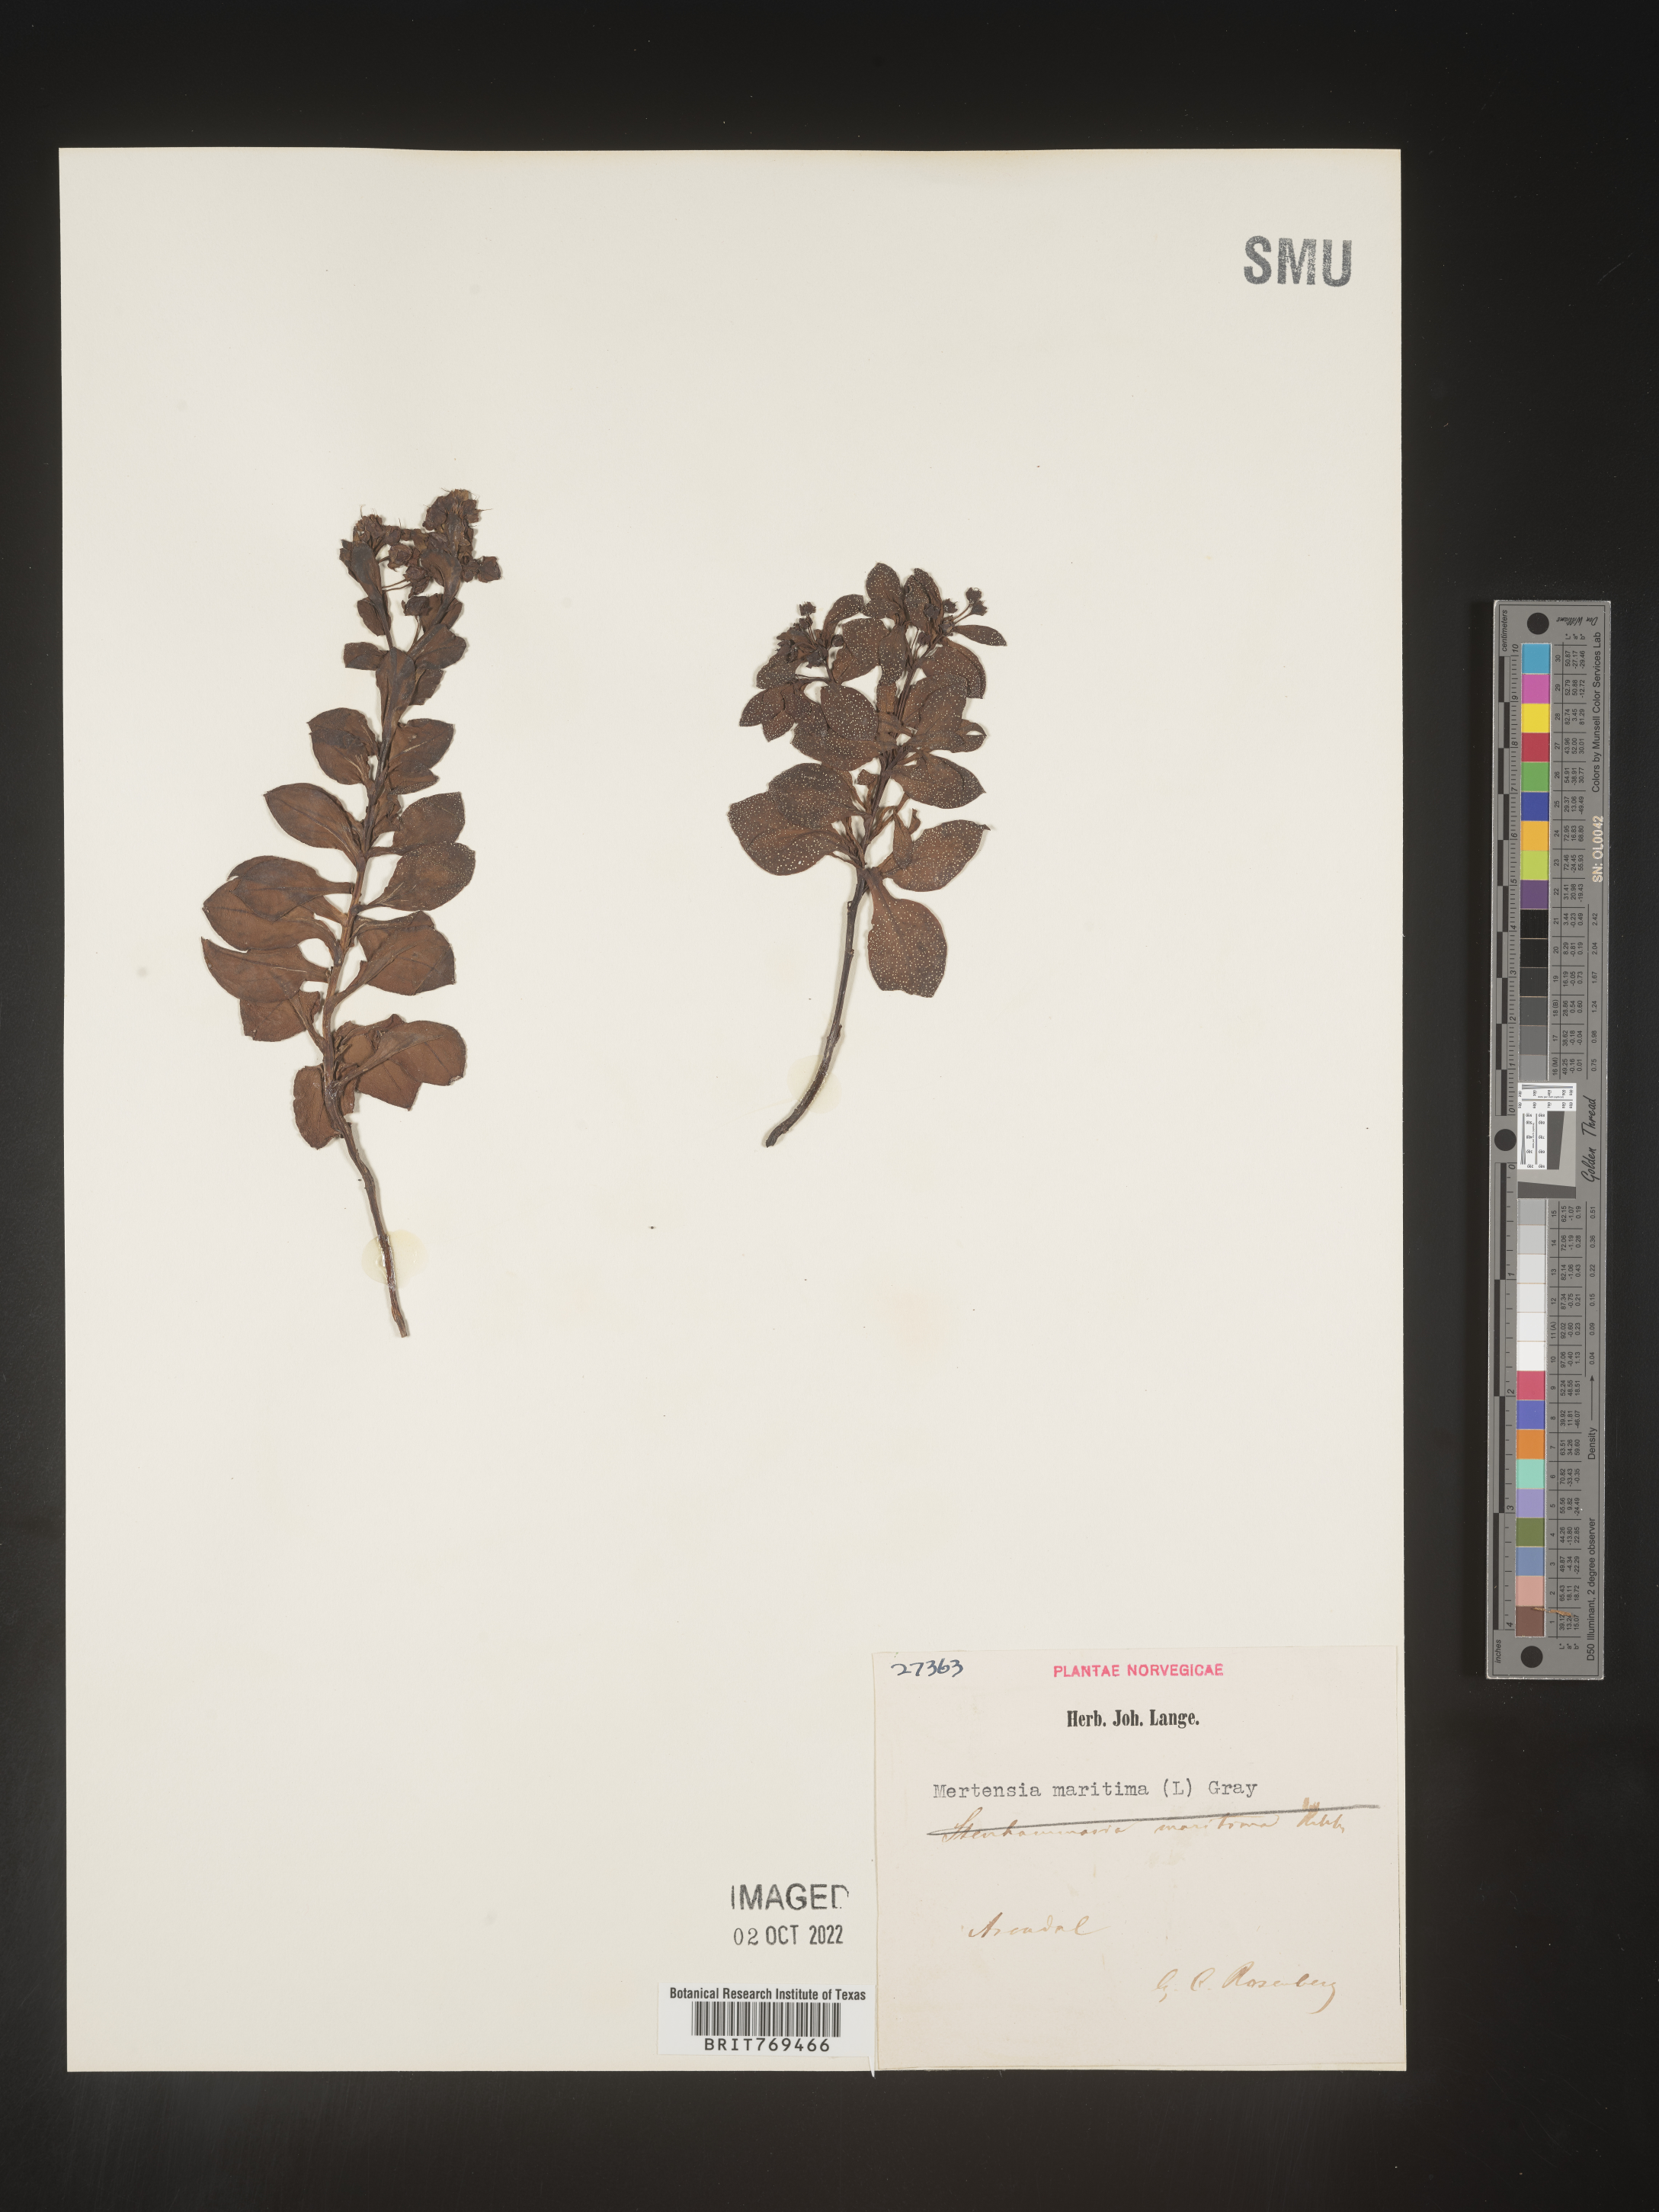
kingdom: Plantae
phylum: Tracheophyta
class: Magnoliopsida
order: Boraginales
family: Boraginaceae
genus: Mertensia
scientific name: Mertensia
